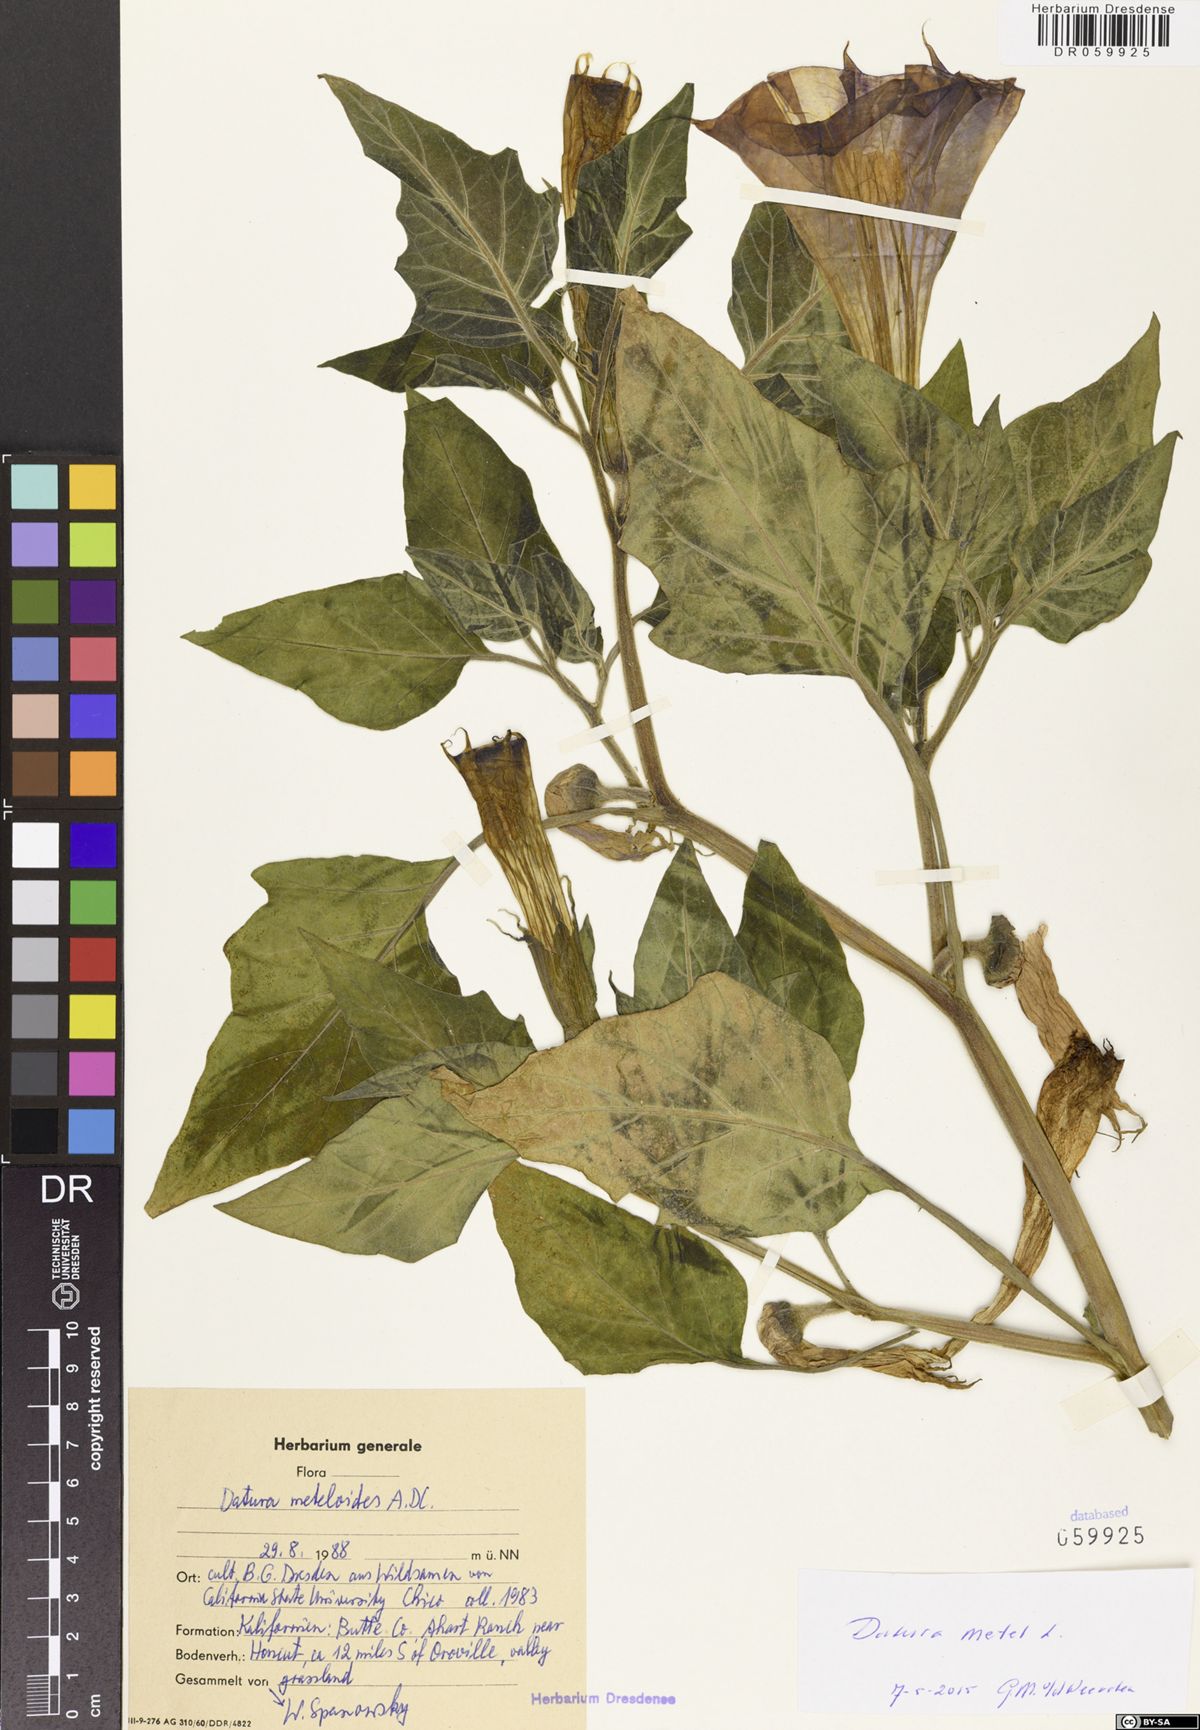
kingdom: Plantae
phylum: Tracheophyta
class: Magnoliopsida
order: Solanales
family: Solanaceae
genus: Datura
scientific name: Datura metel
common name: Jimsonweed
